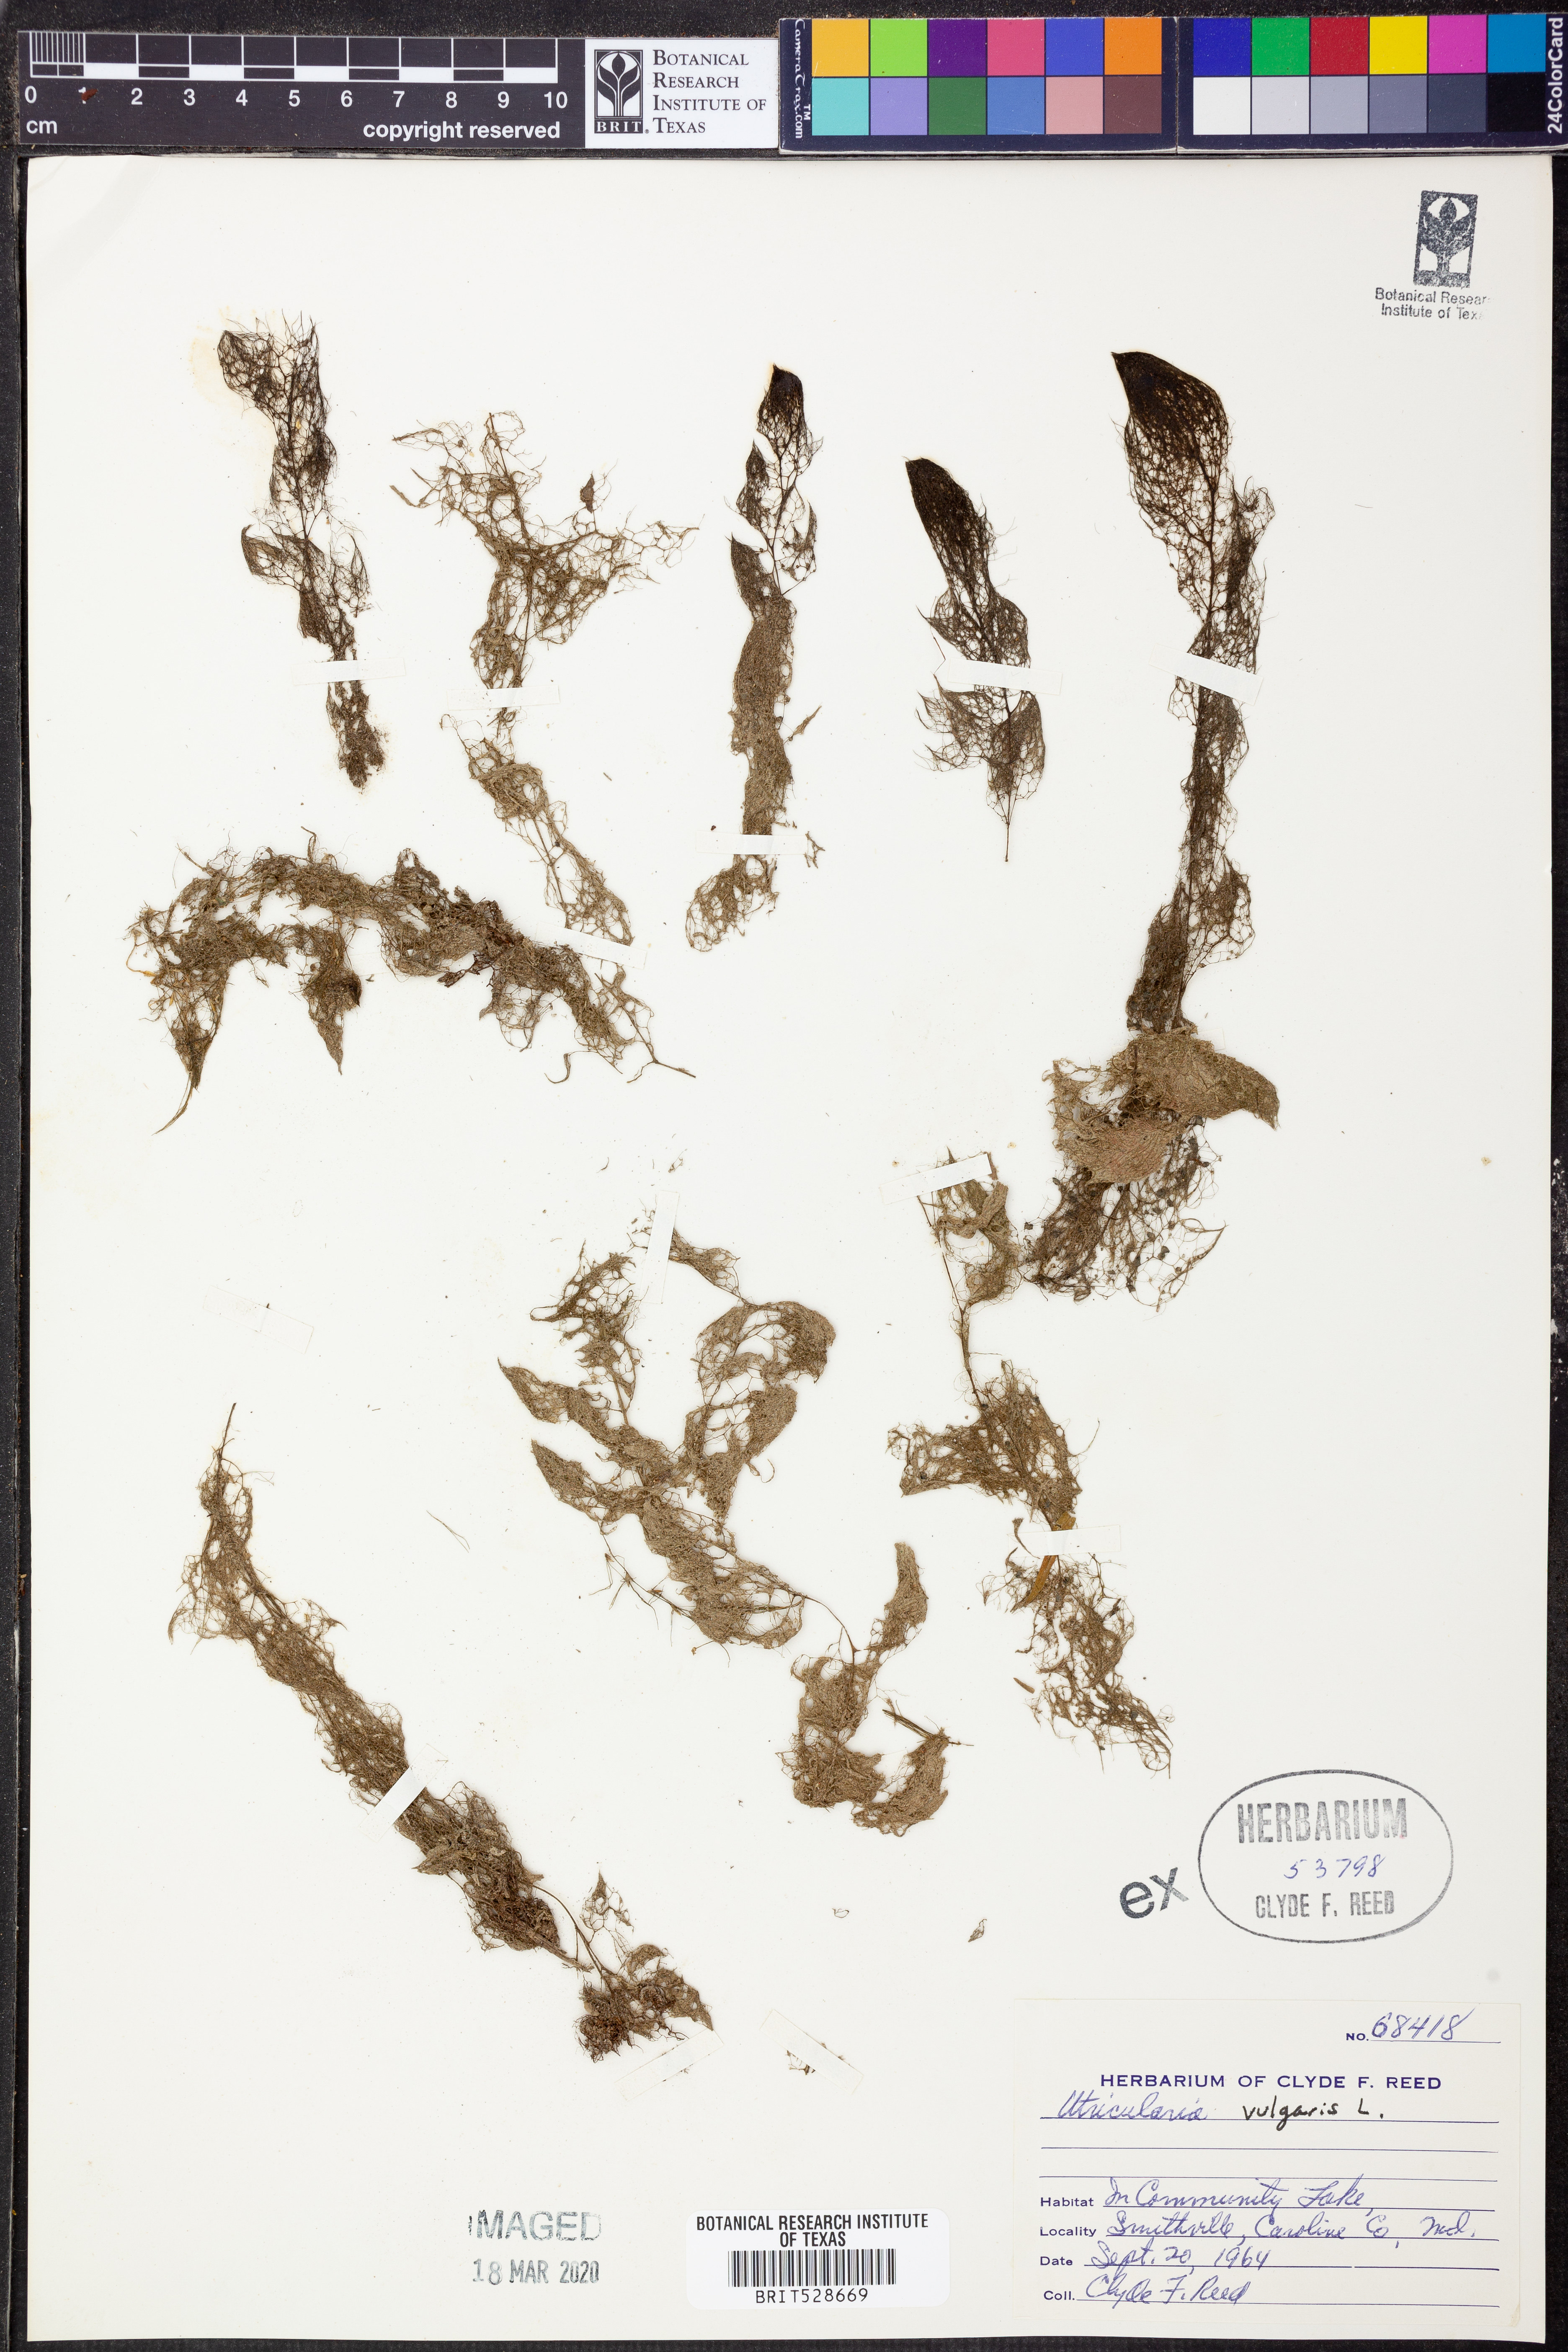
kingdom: Plantae
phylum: Tracheophyta
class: Magnoliopsida
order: Lamiales
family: Lentibulariaceae
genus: Utricularia
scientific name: Utricularia vulgaris
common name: Greater bladderwort
